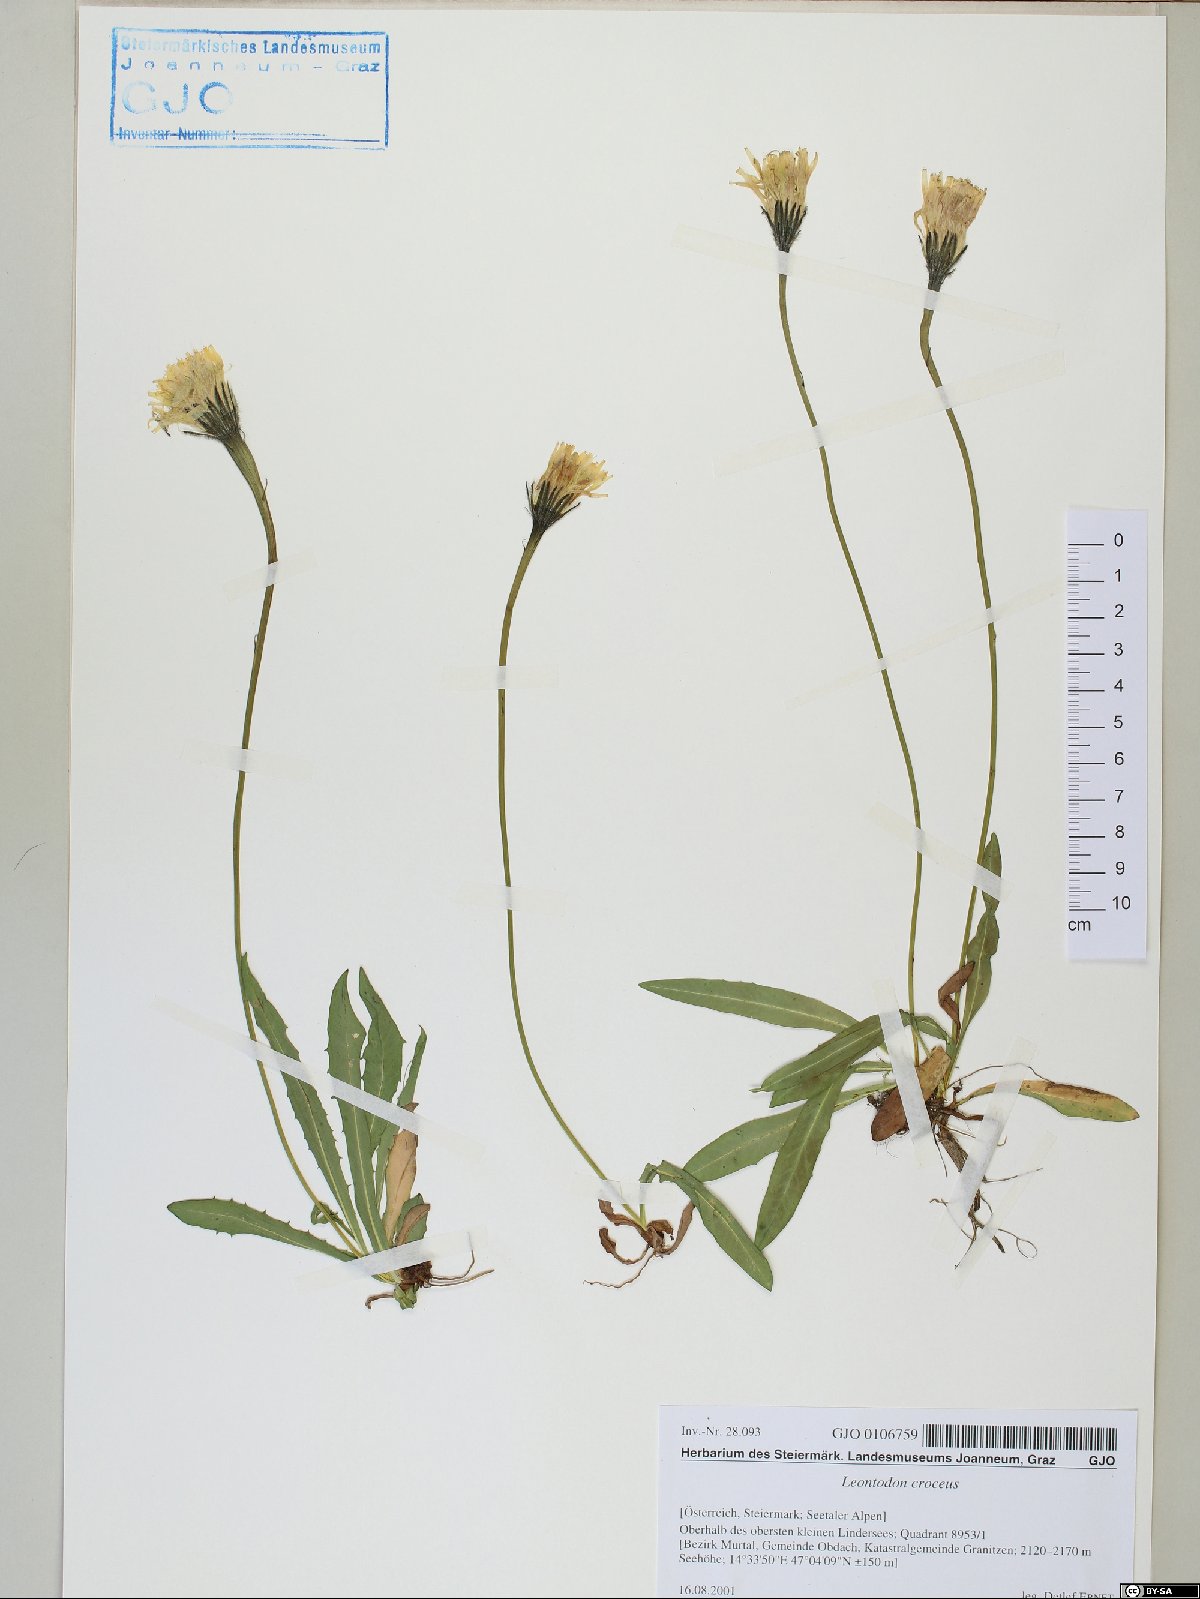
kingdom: Plantae
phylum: Tracheophyta
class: Magnoliopsida
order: Asterales
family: Asteraceae
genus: Scorzoneroides
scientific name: Scorzoneroides crocea
